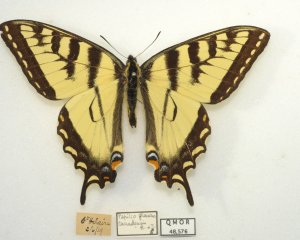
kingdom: Animalia
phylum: Arthropoda
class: Insecta
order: Lepidoptera
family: Papilionidae
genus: Pterourus
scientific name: Pterourus canadensis
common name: Canadian Tiger Swallowtail
